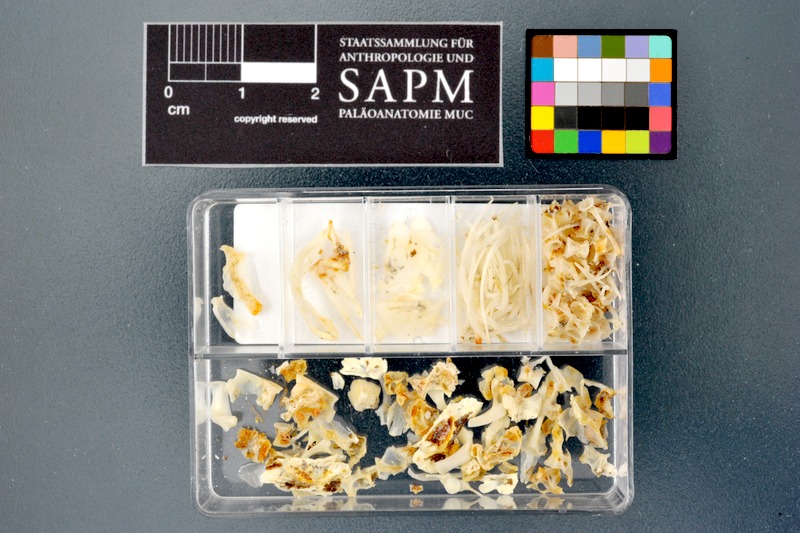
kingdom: Animalia
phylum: Chordata
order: Cypriniformes
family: Cyprinidae
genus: Garra
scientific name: Garra dembeensis
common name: Dembea stone lapper
